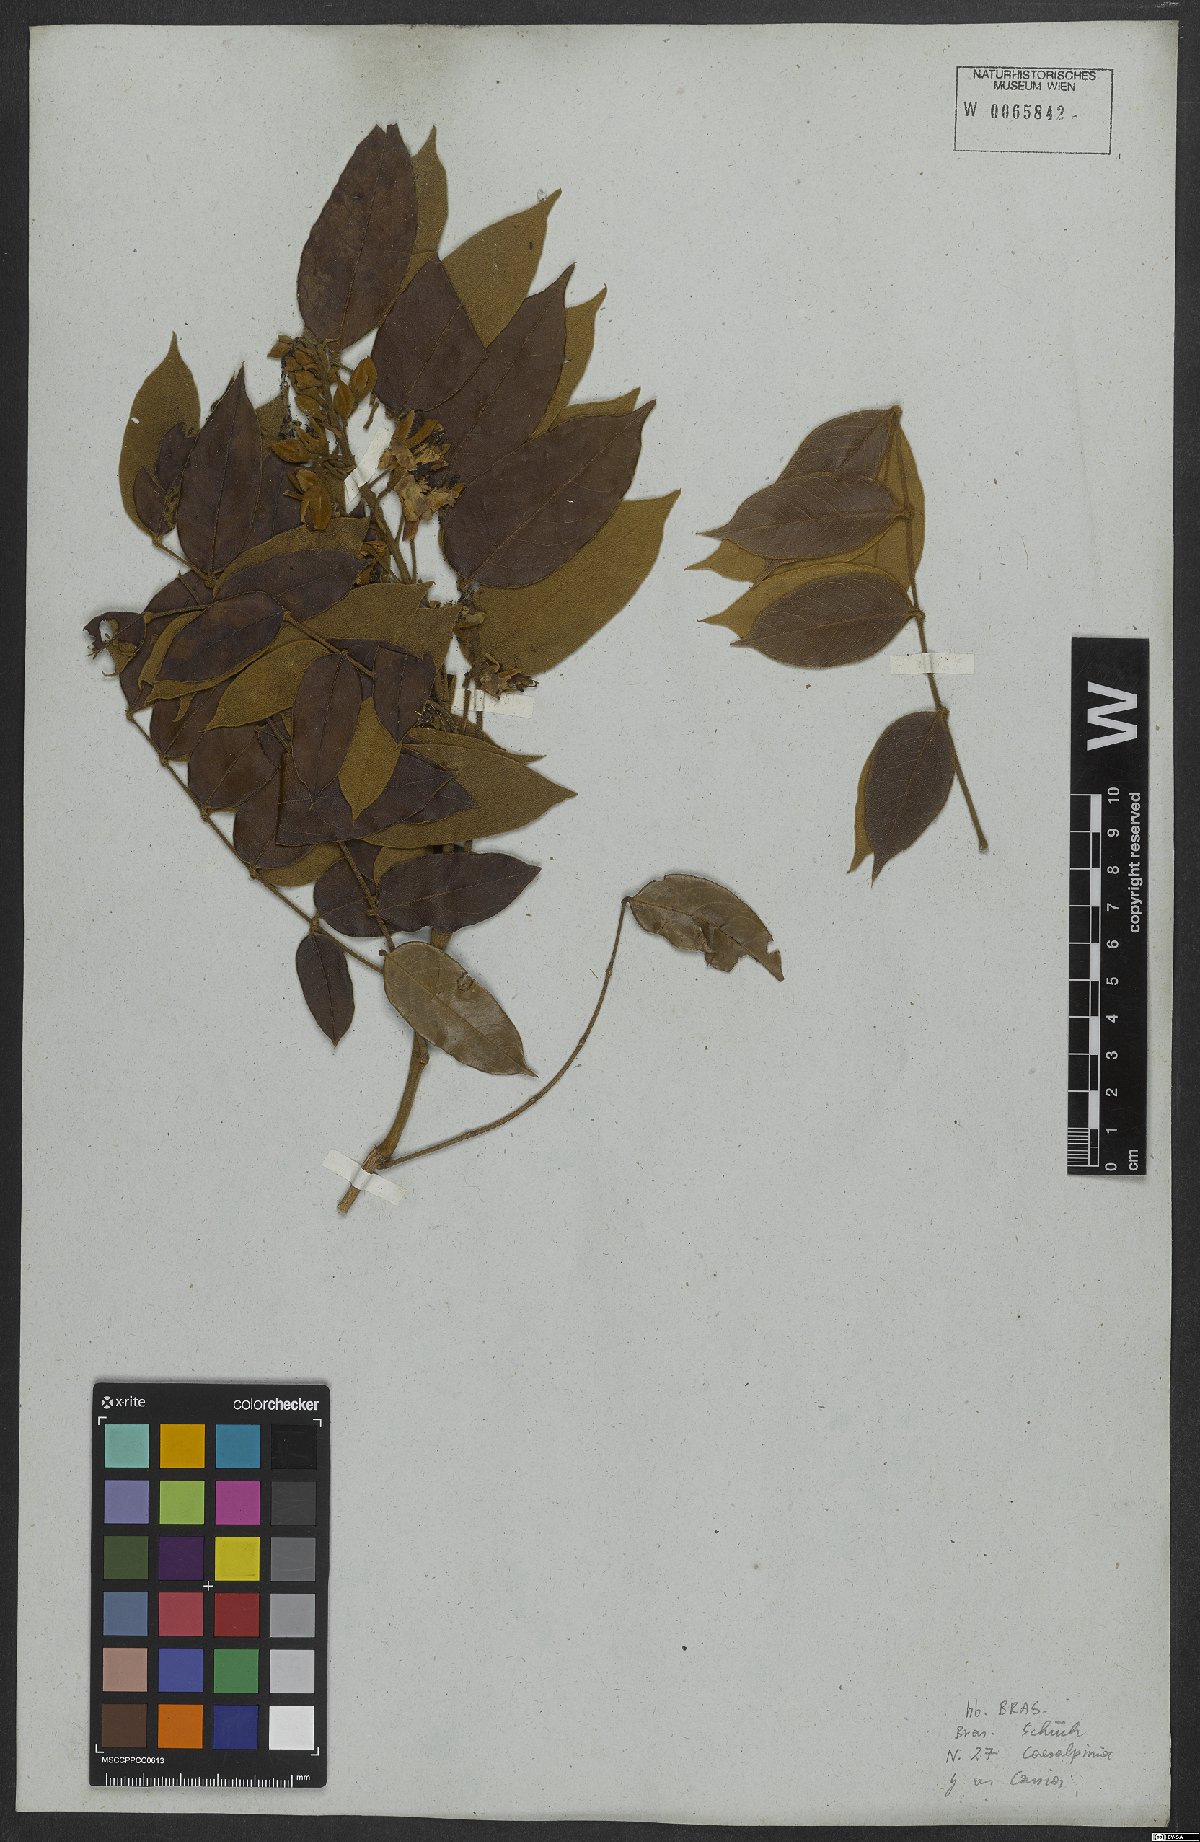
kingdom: Plantae
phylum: Tracheophyta
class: Magnoliopsida
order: Fabales
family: Fabaceae
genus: Caesalpinia
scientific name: Caesalpinia
